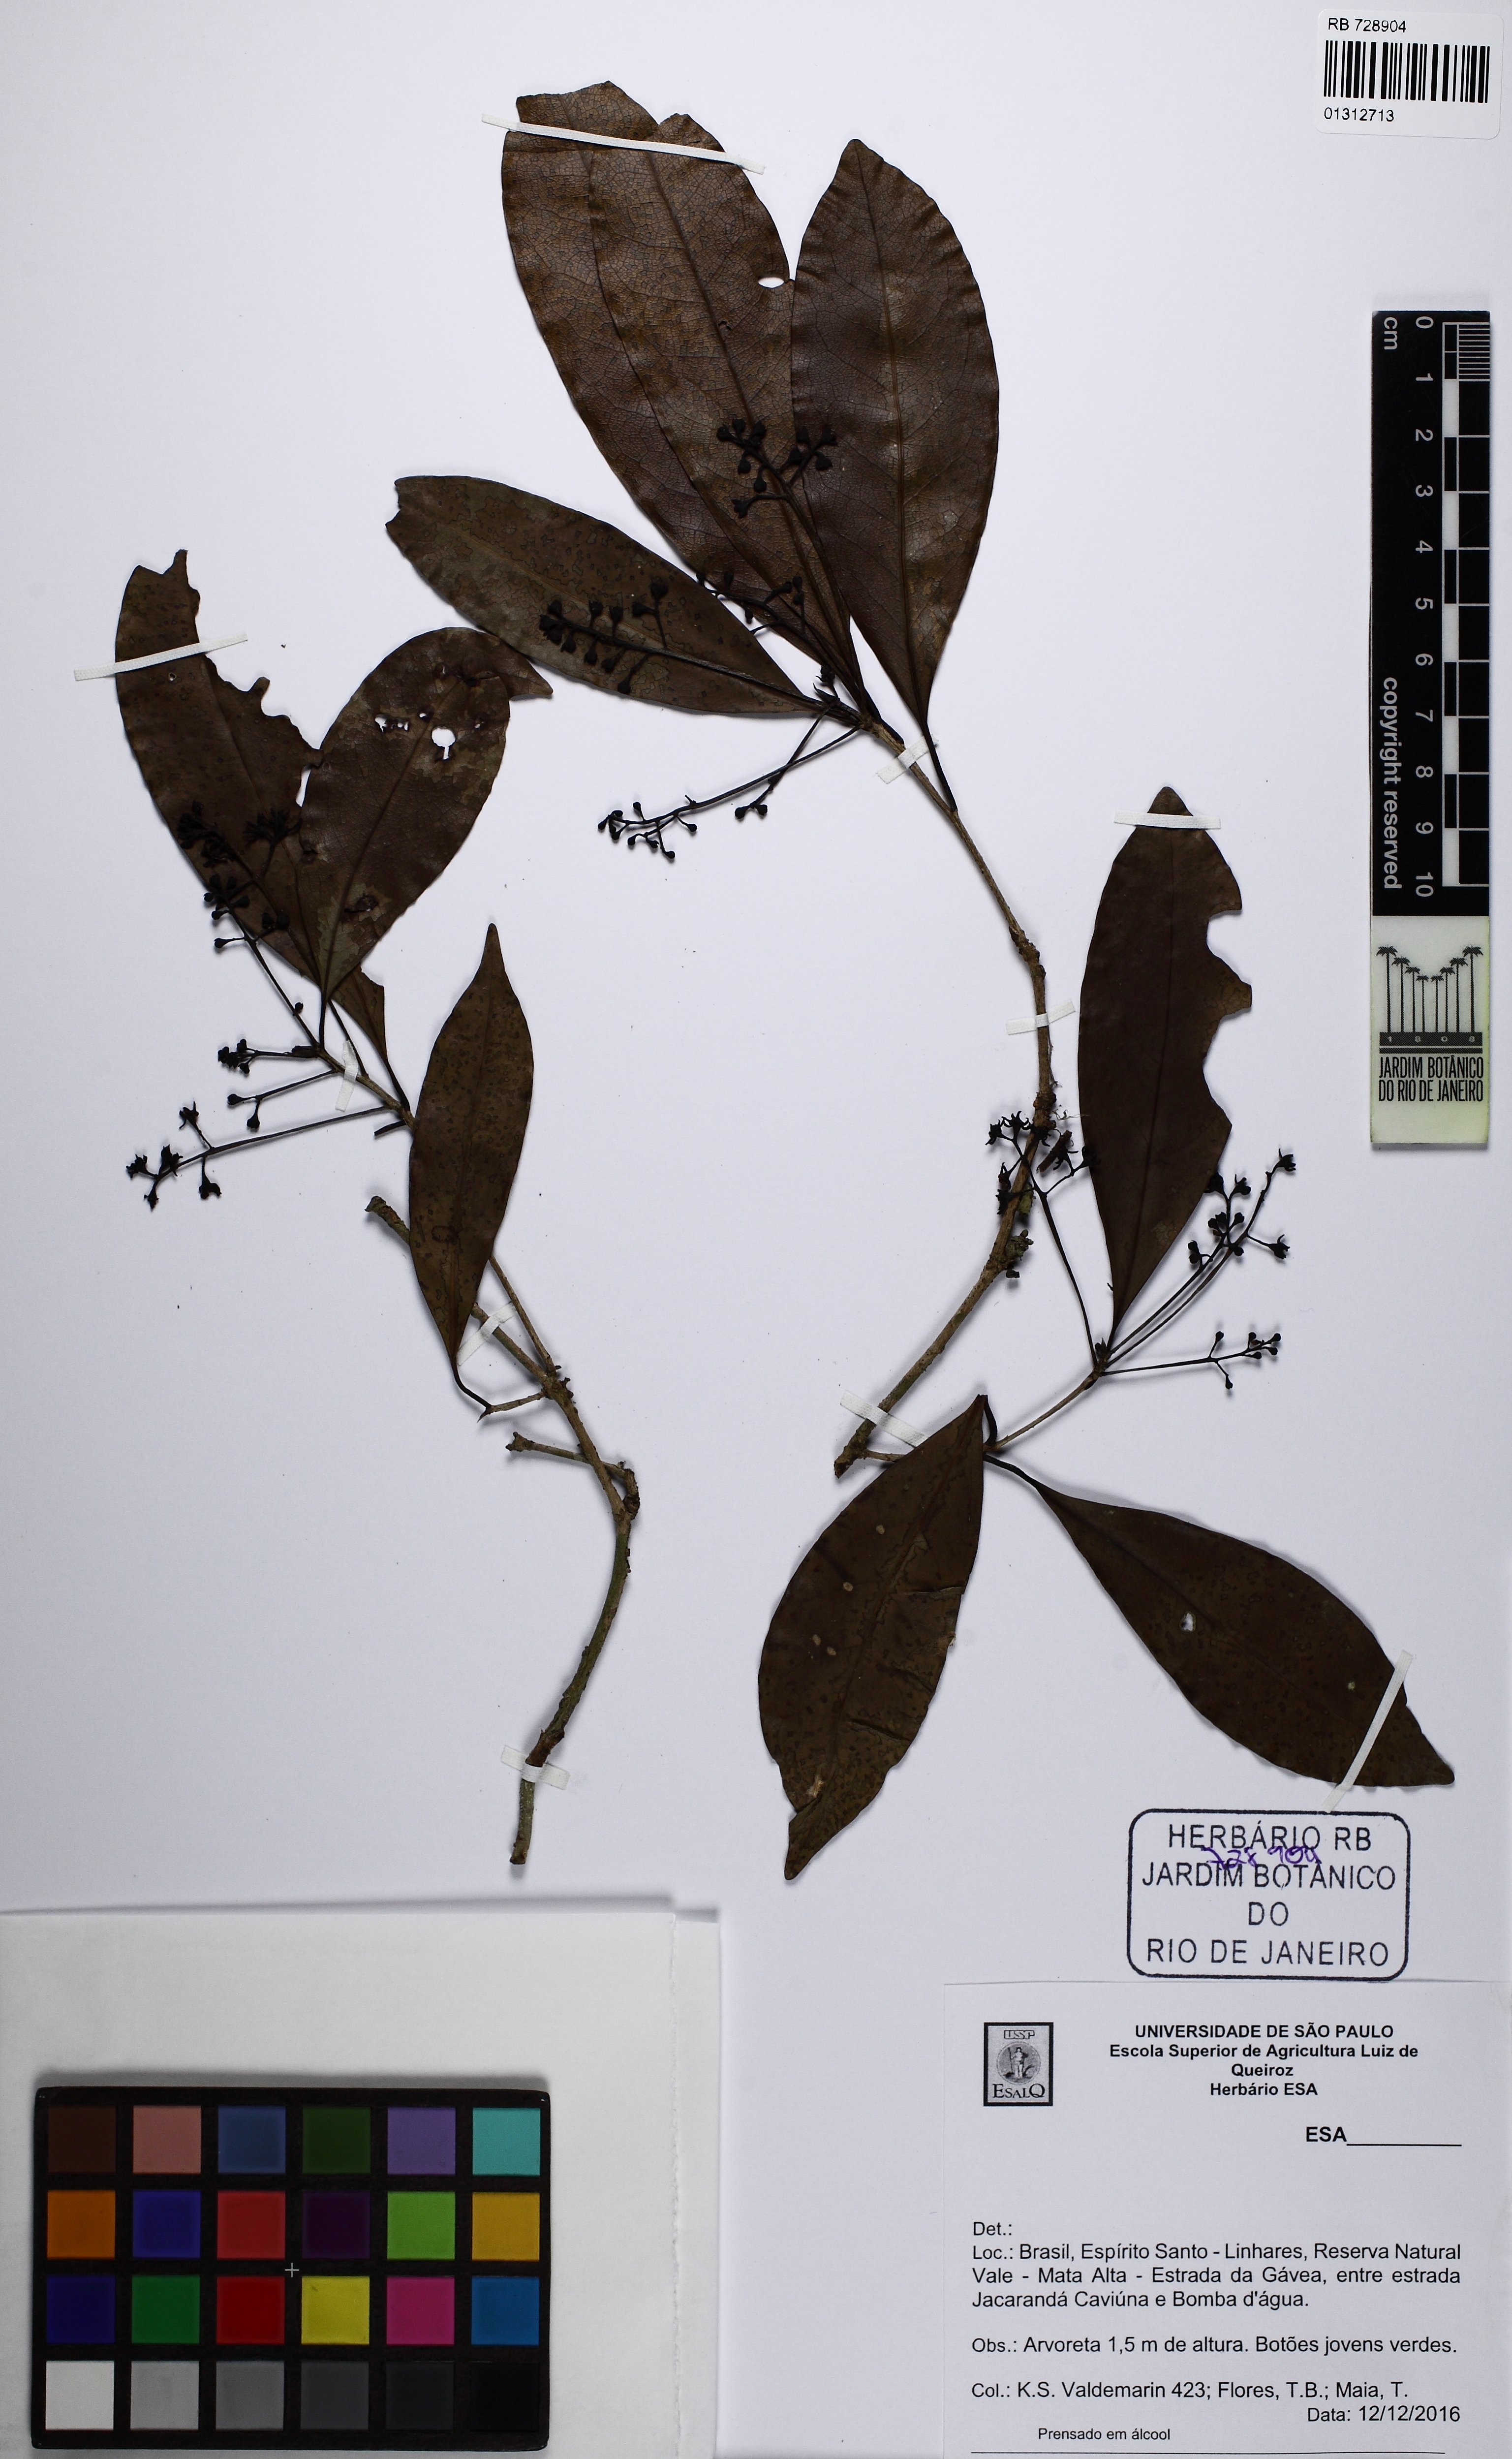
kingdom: Plantae
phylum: Tracheophyta
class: Magnoliopsida
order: Laurales
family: Lauraceae
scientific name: Lauraceae
